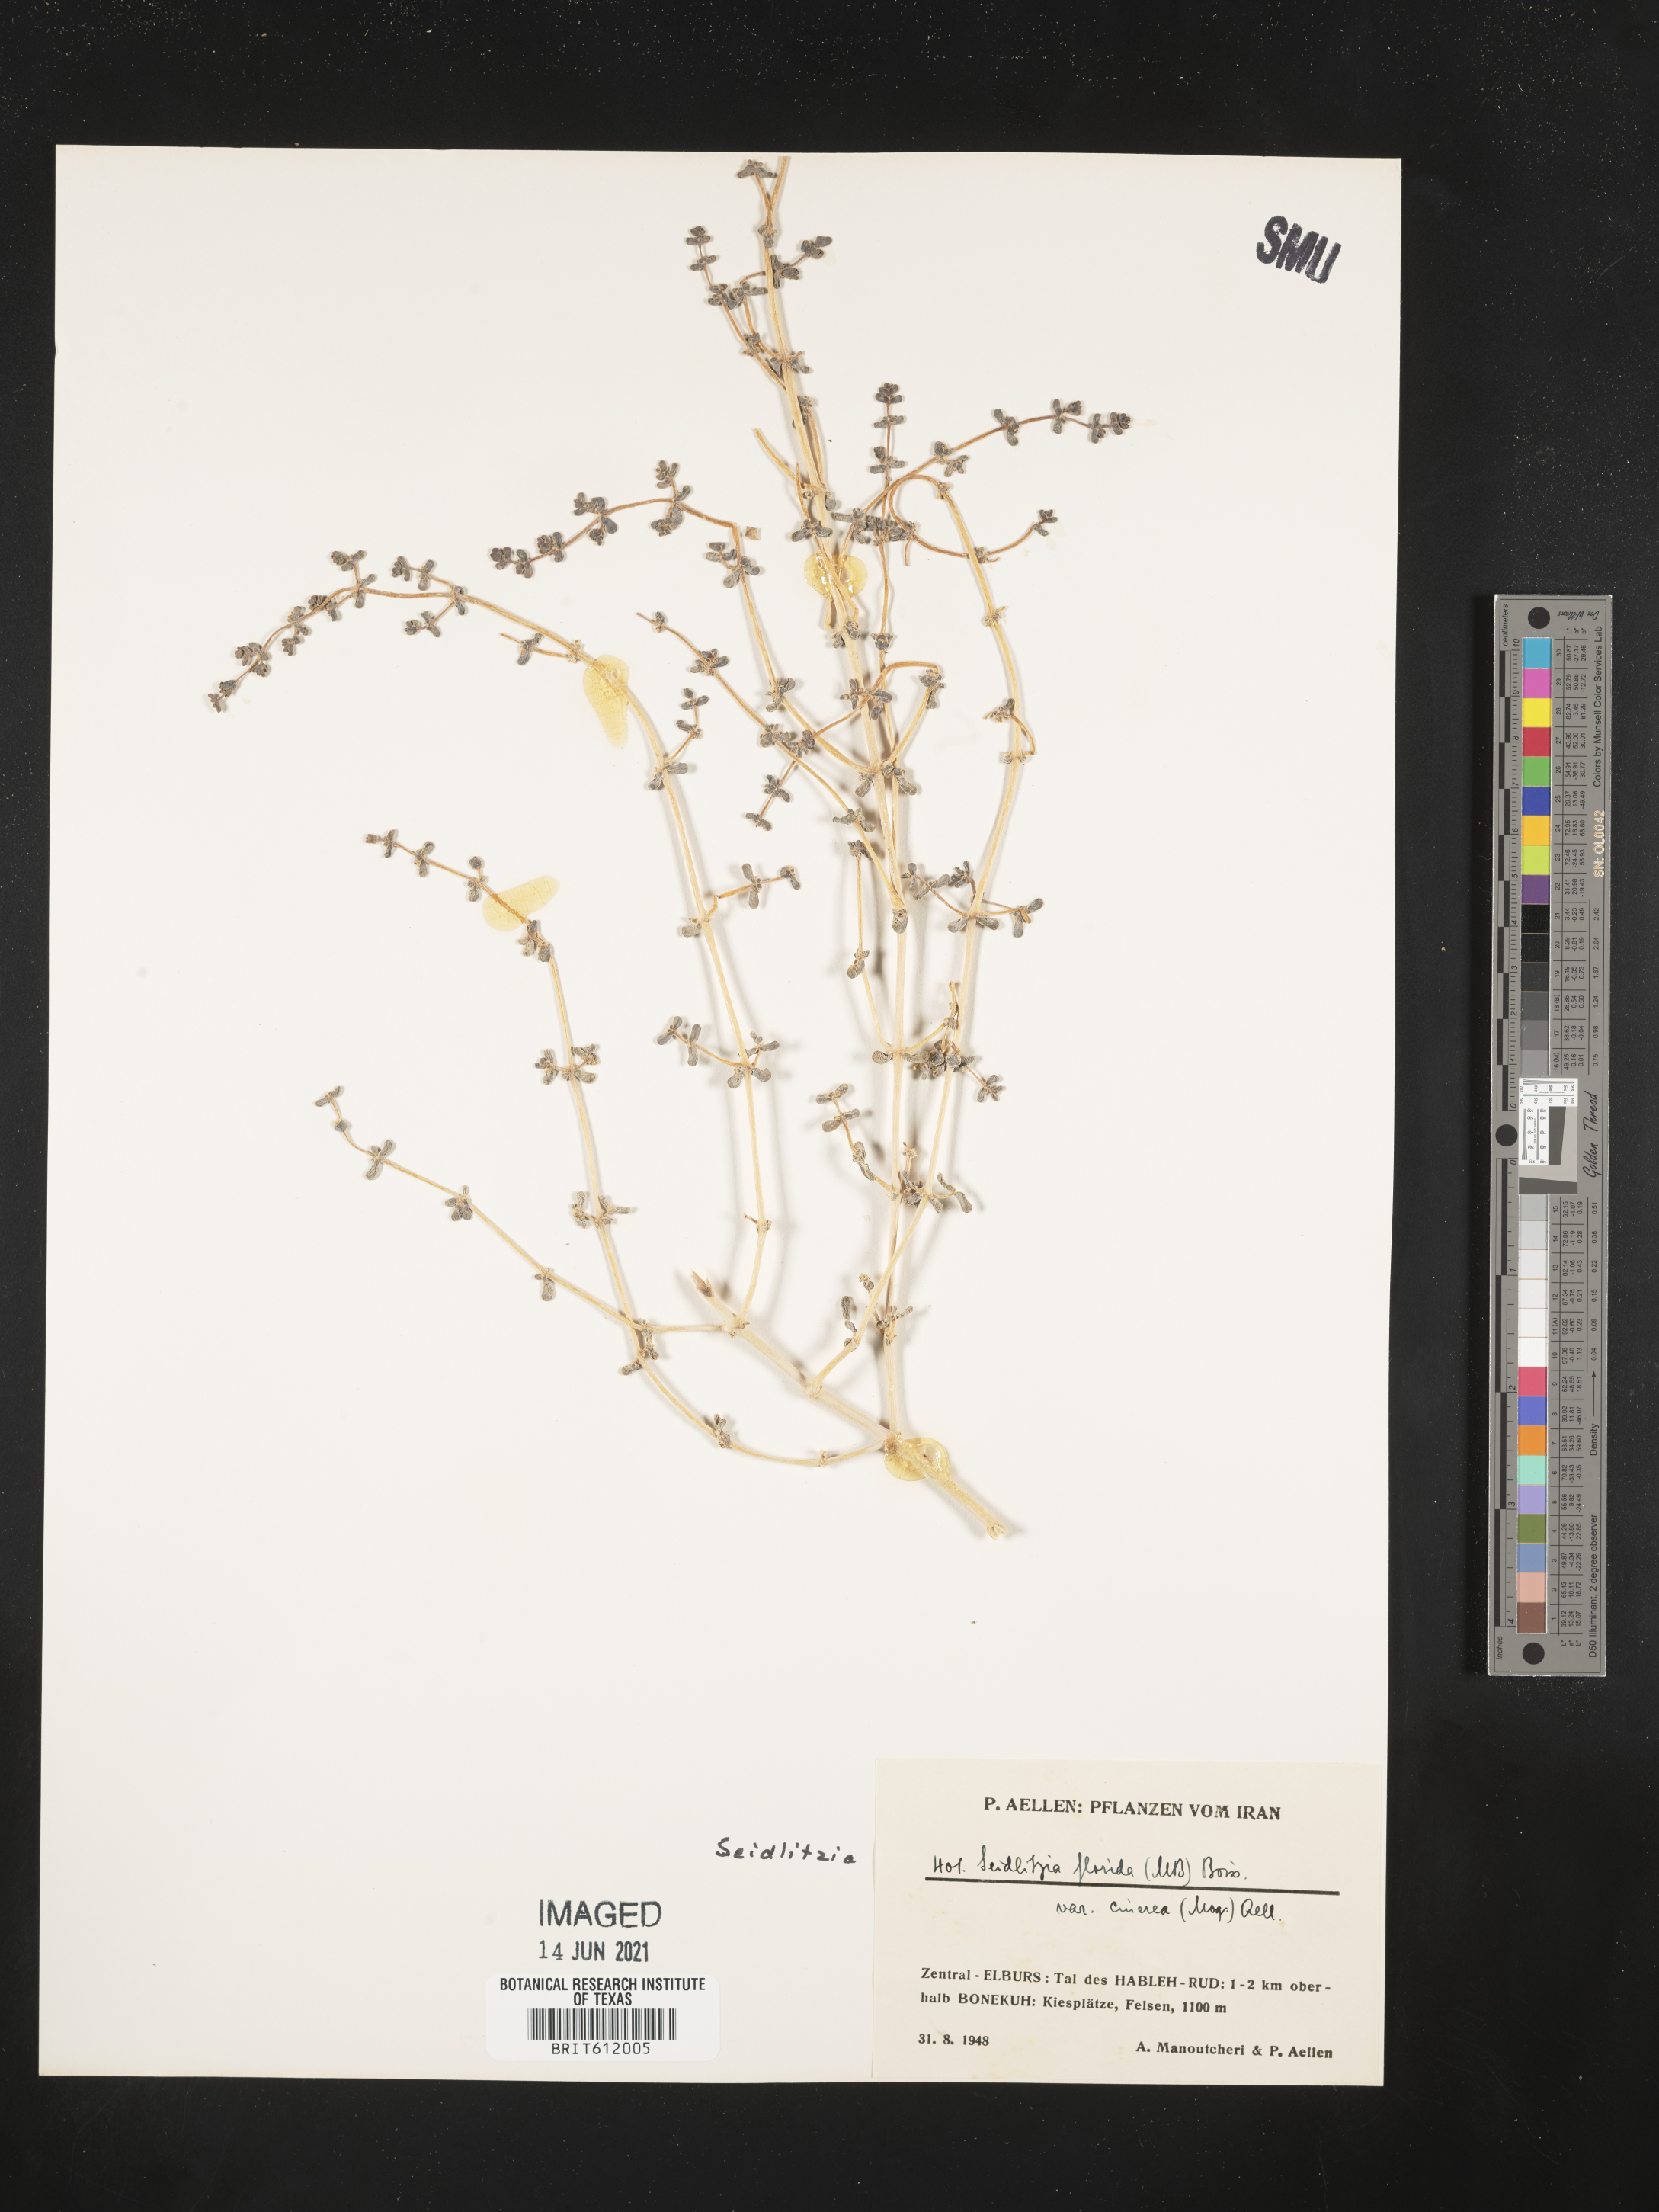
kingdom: Plantae
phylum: Tracheophyta
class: Magnoliopsida
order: Caryophyllales
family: Amaranthaceae
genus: Soda
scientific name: Soda florida
